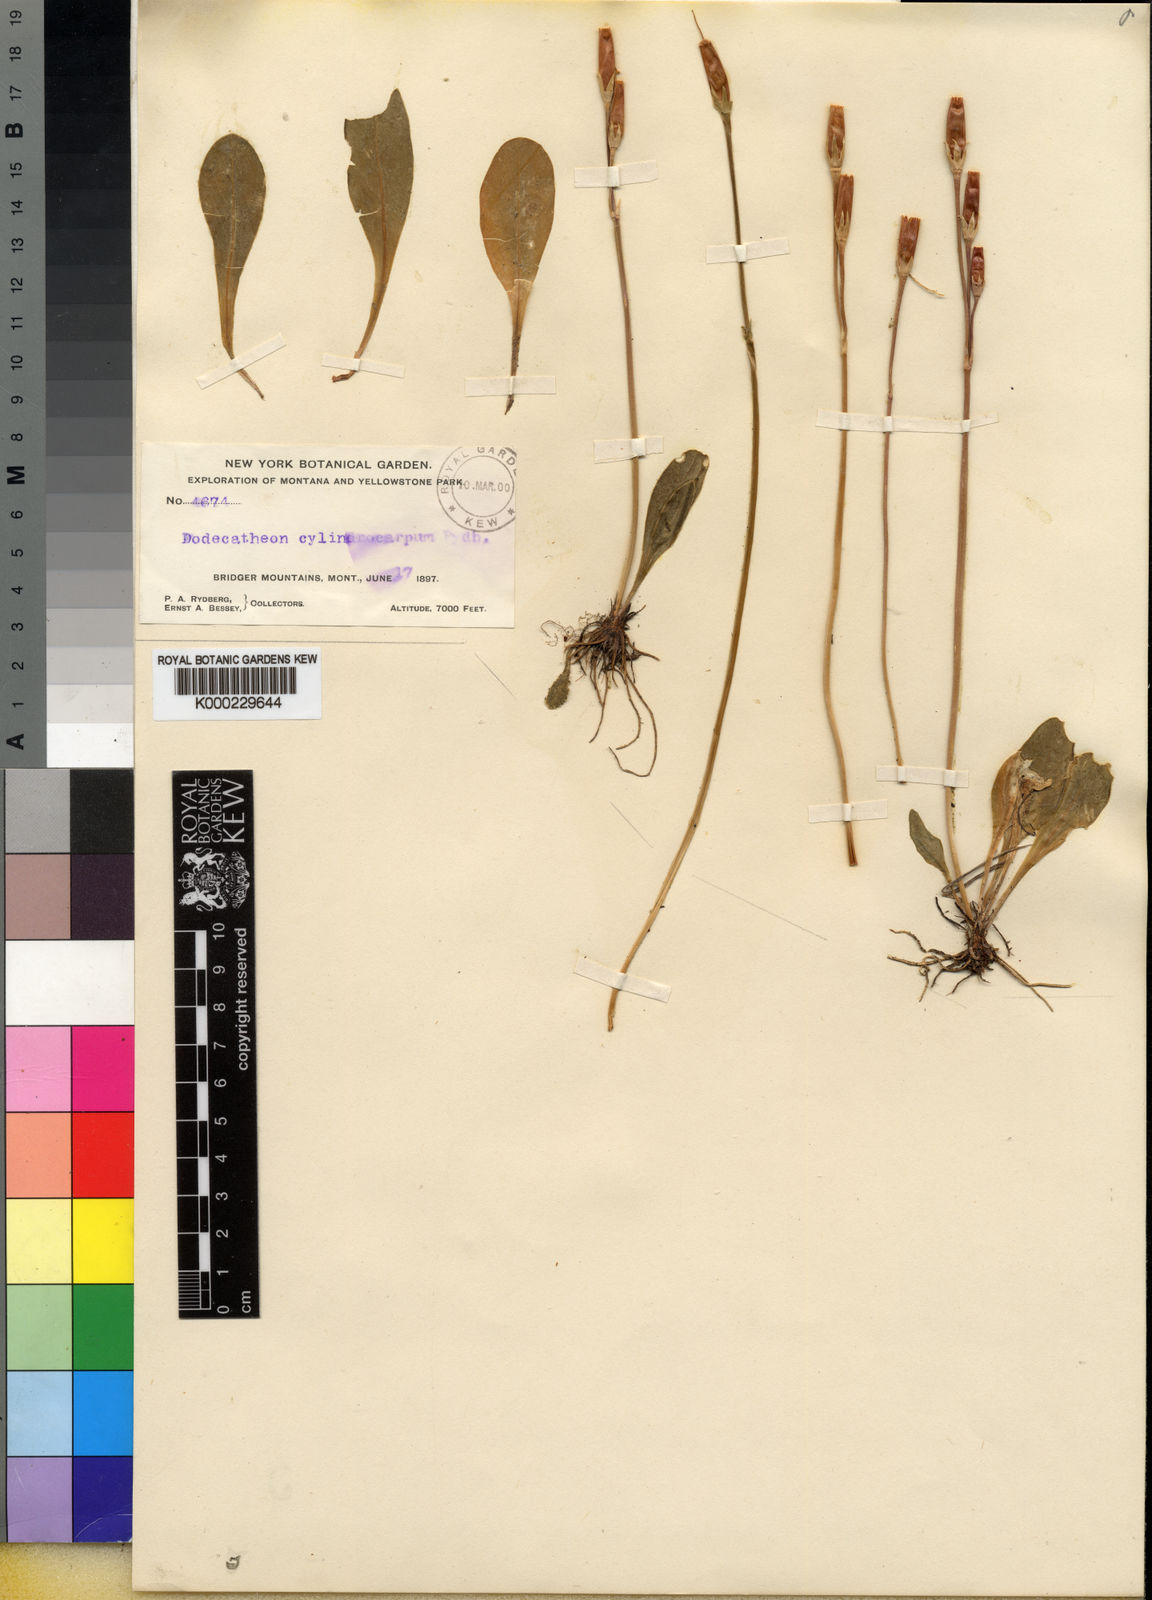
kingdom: Plantae
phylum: Tracheophyta
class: Magnoliopsida
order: Ericales
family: Primulaceae
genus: Dodecatheon
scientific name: Dodecatheon conjugens
